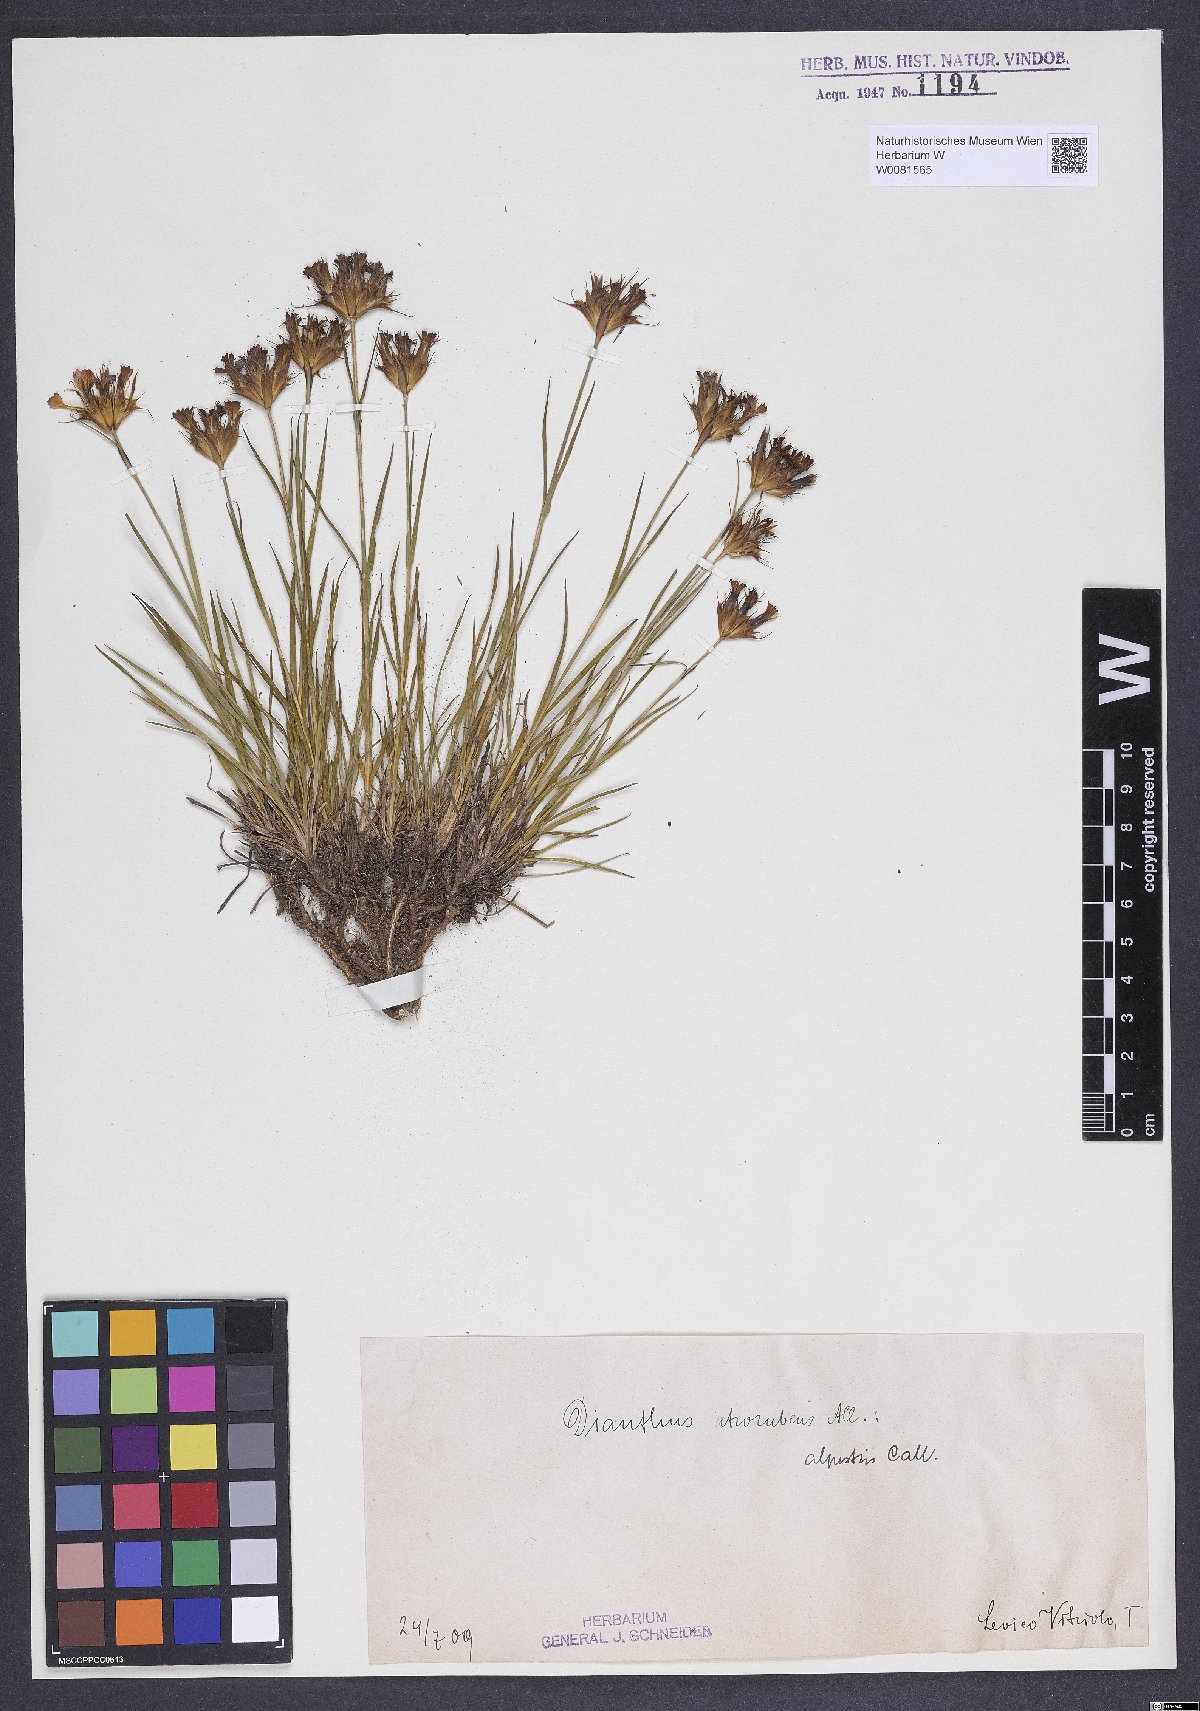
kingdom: Plantae
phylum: Tracheophyta
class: Magnoliopsida
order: Caryophyllales
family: Caryophyllaceae
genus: Dianthus
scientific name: Dianthus carthusianorum
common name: Carthusian pink
